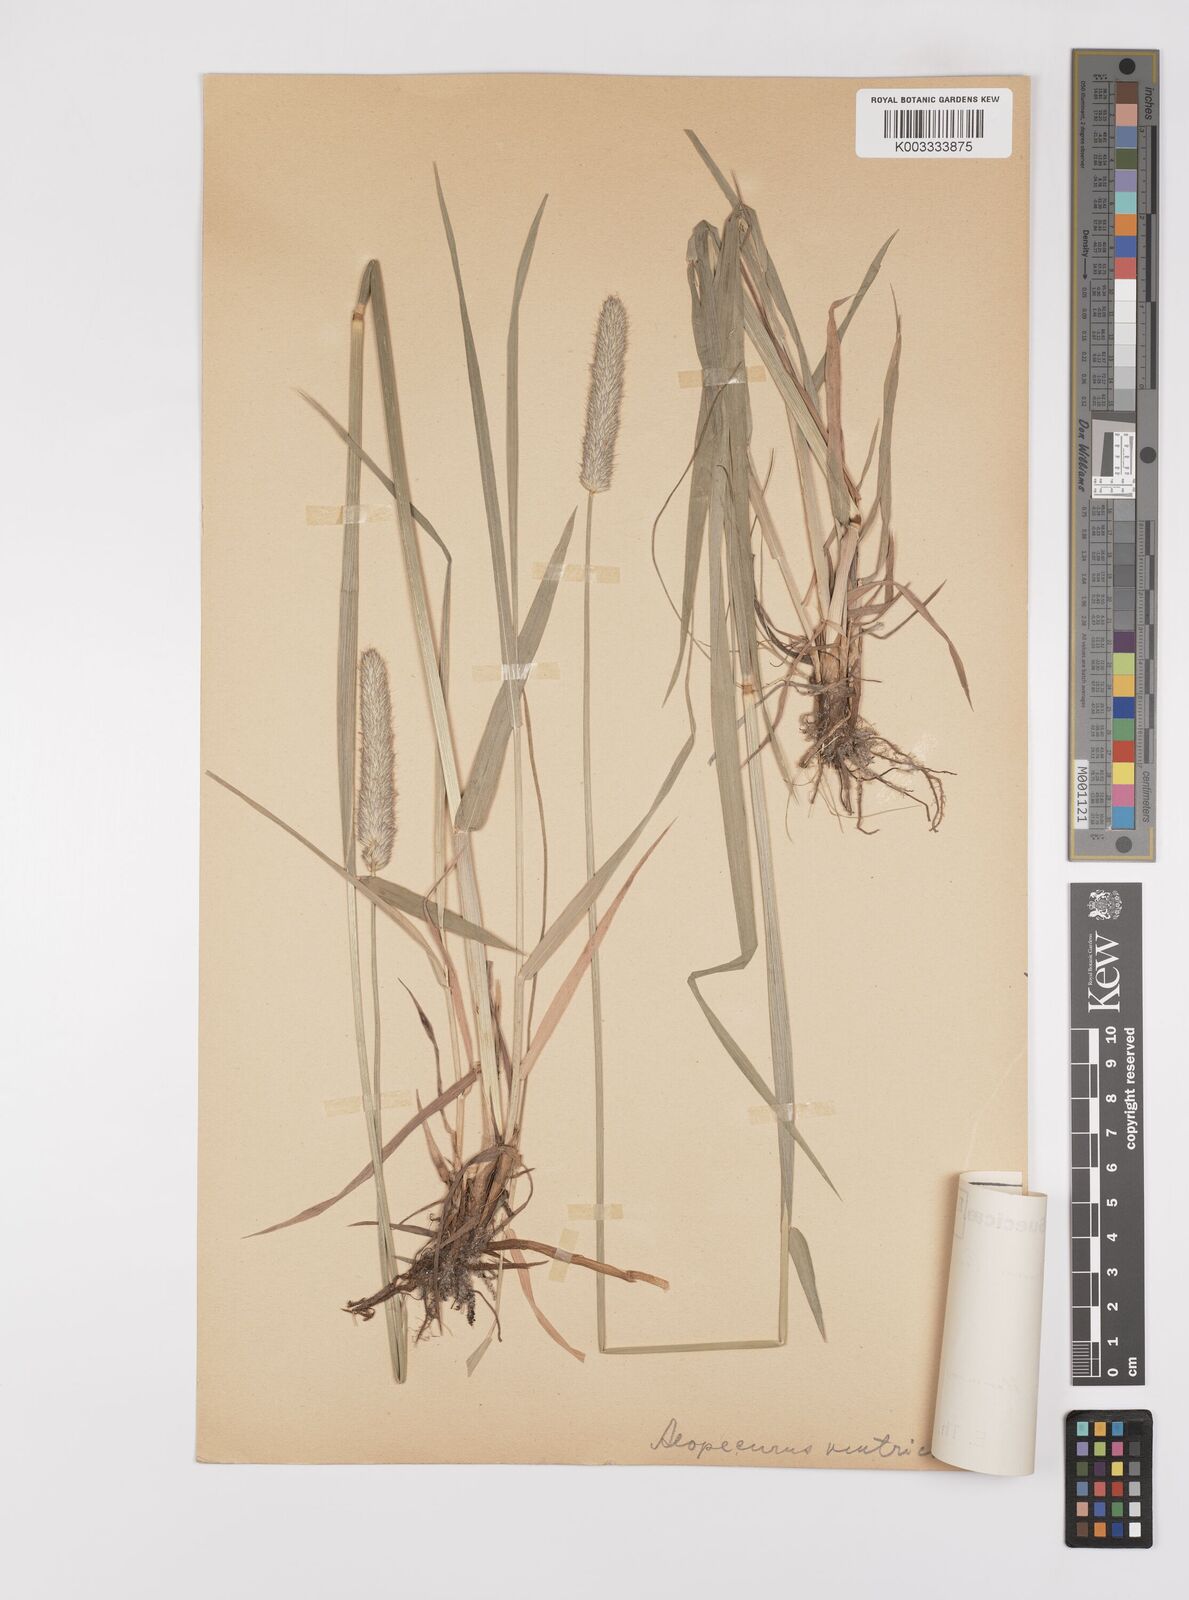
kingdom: Plantae
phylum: Tracheophyta
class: Liliopsida
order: Poales
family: Poaceae
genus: Alopecurus
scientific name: Alopecurus pratensis
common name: Meadow foxtail
